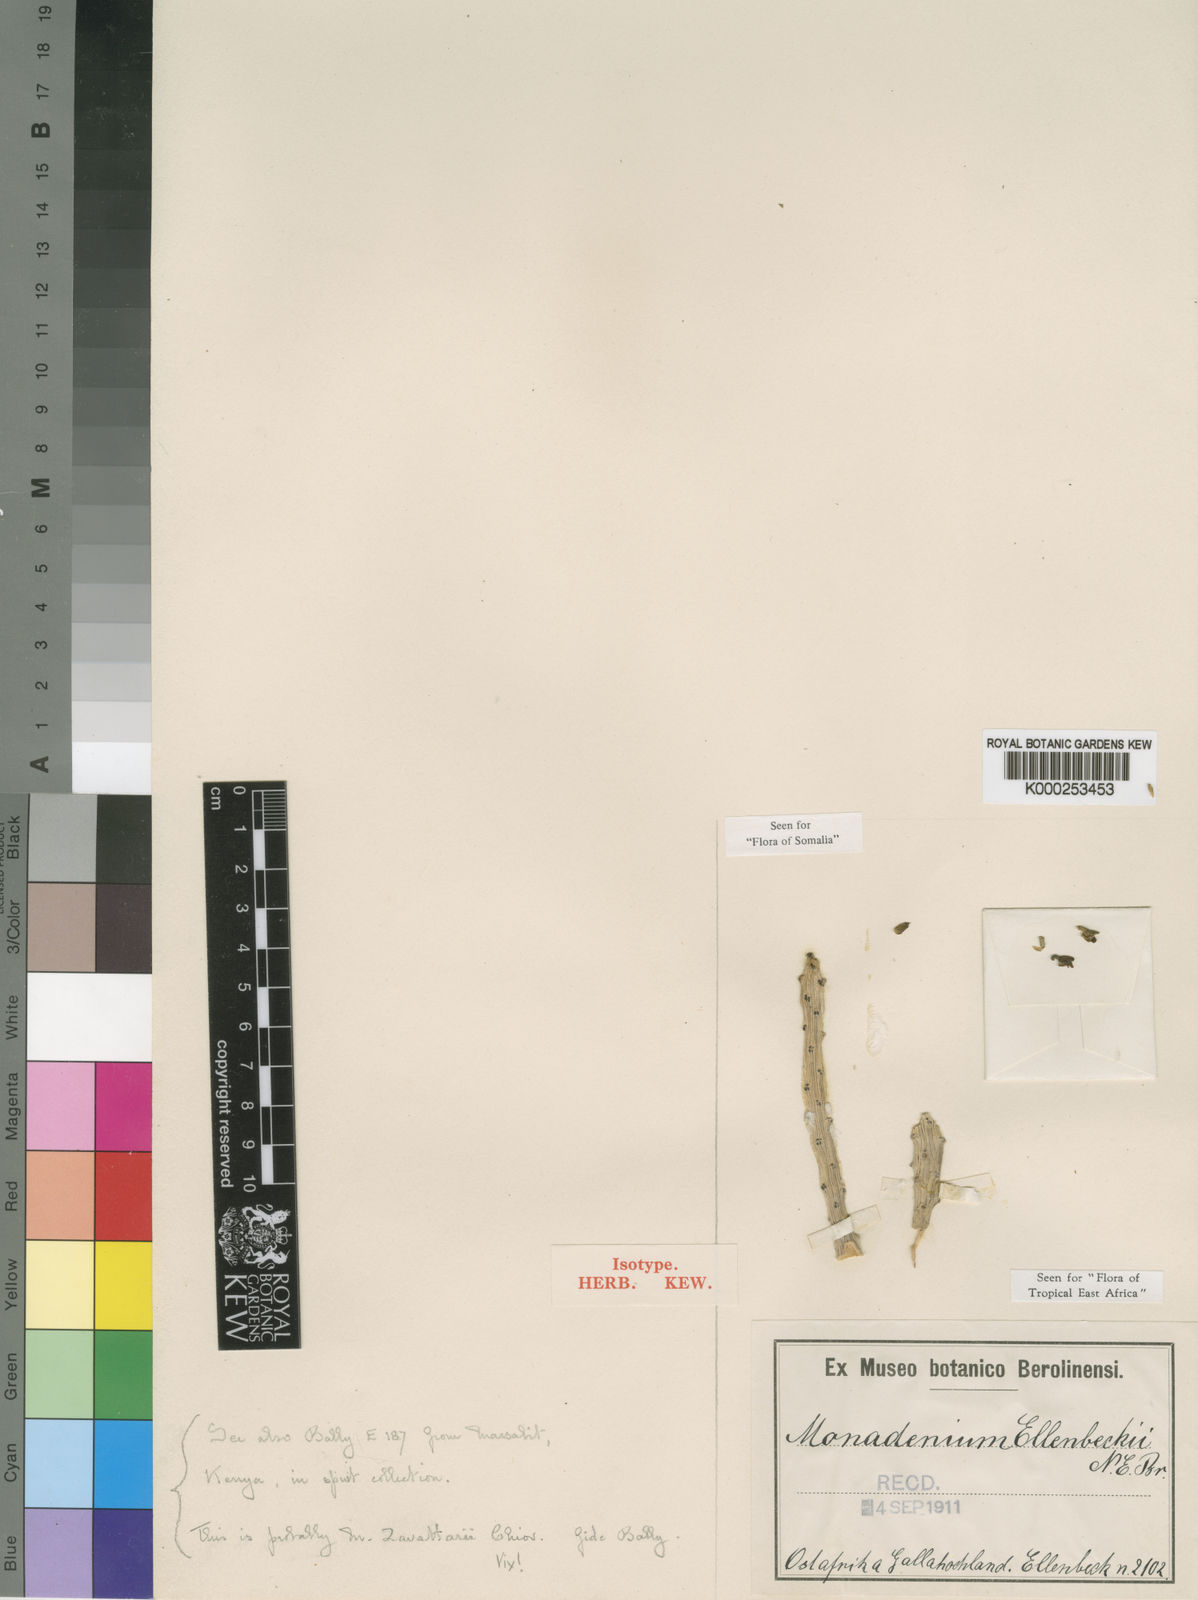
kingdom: Plantae
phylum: Tracheophyta
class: Magnoliopsida
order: Malpighiales
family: Euphorbiaceae
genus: Euphorbia
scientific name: Euphorbia bisellenbeckii
